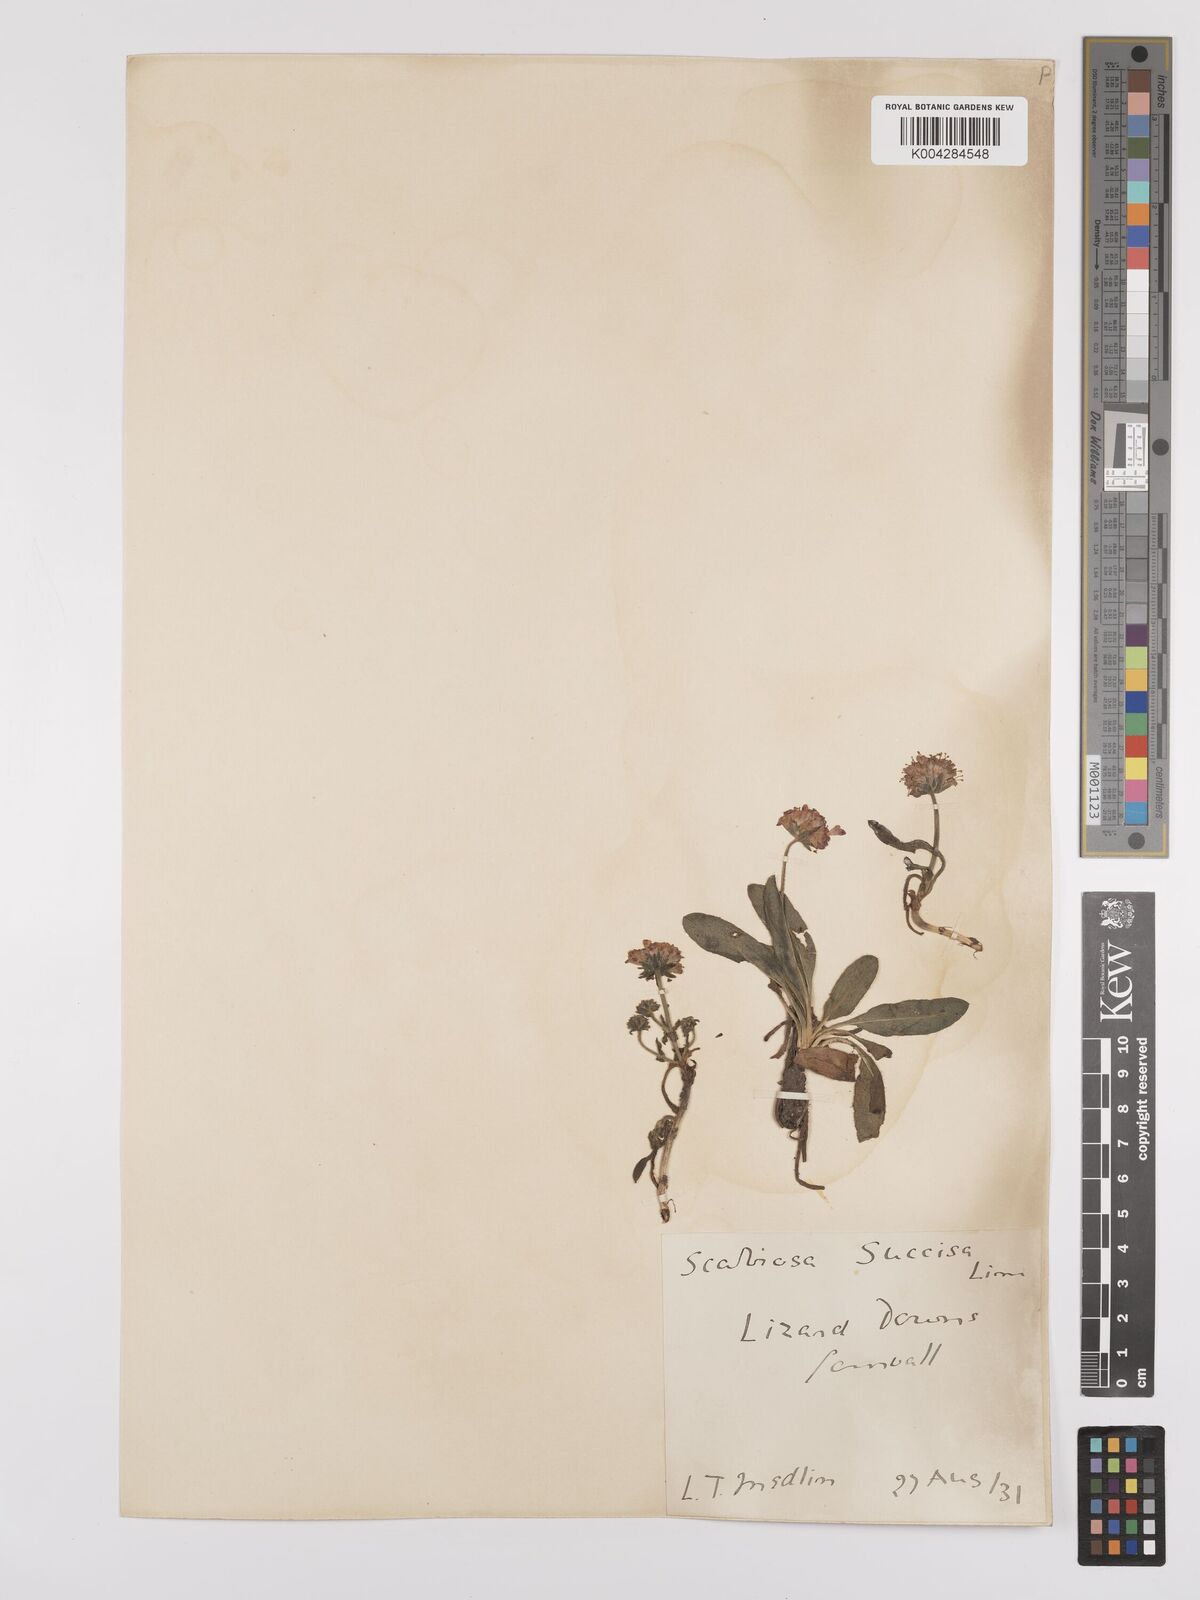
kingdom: Plantae
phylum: Tracheophyta
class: Magnoliopsida
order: Dipsacales
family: Caprifoliaceae
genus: Succisa
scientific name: Succisa pratensis
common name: Devil's-bit
